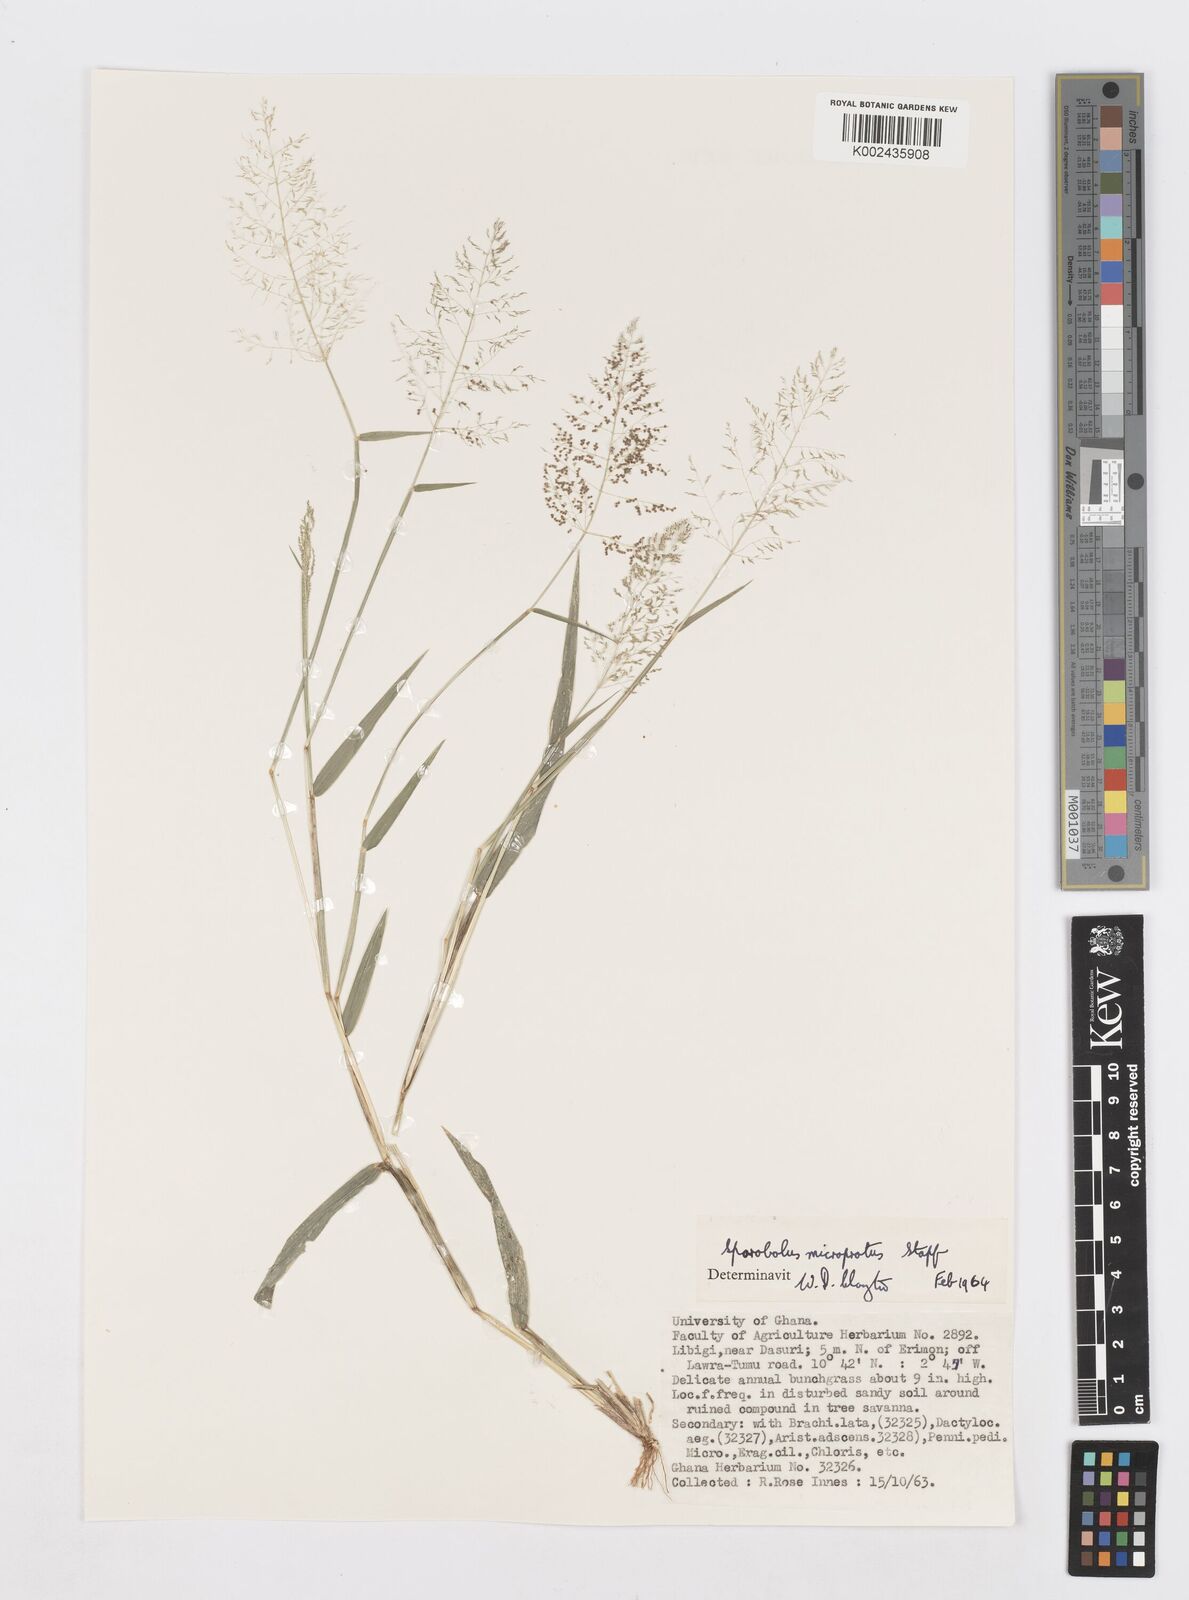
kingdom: Plantae
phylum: Tracheophyta
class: Liliopsida
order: Poales
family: Poaceae
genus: Sporobolus
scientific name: Sporobolus microprotus
